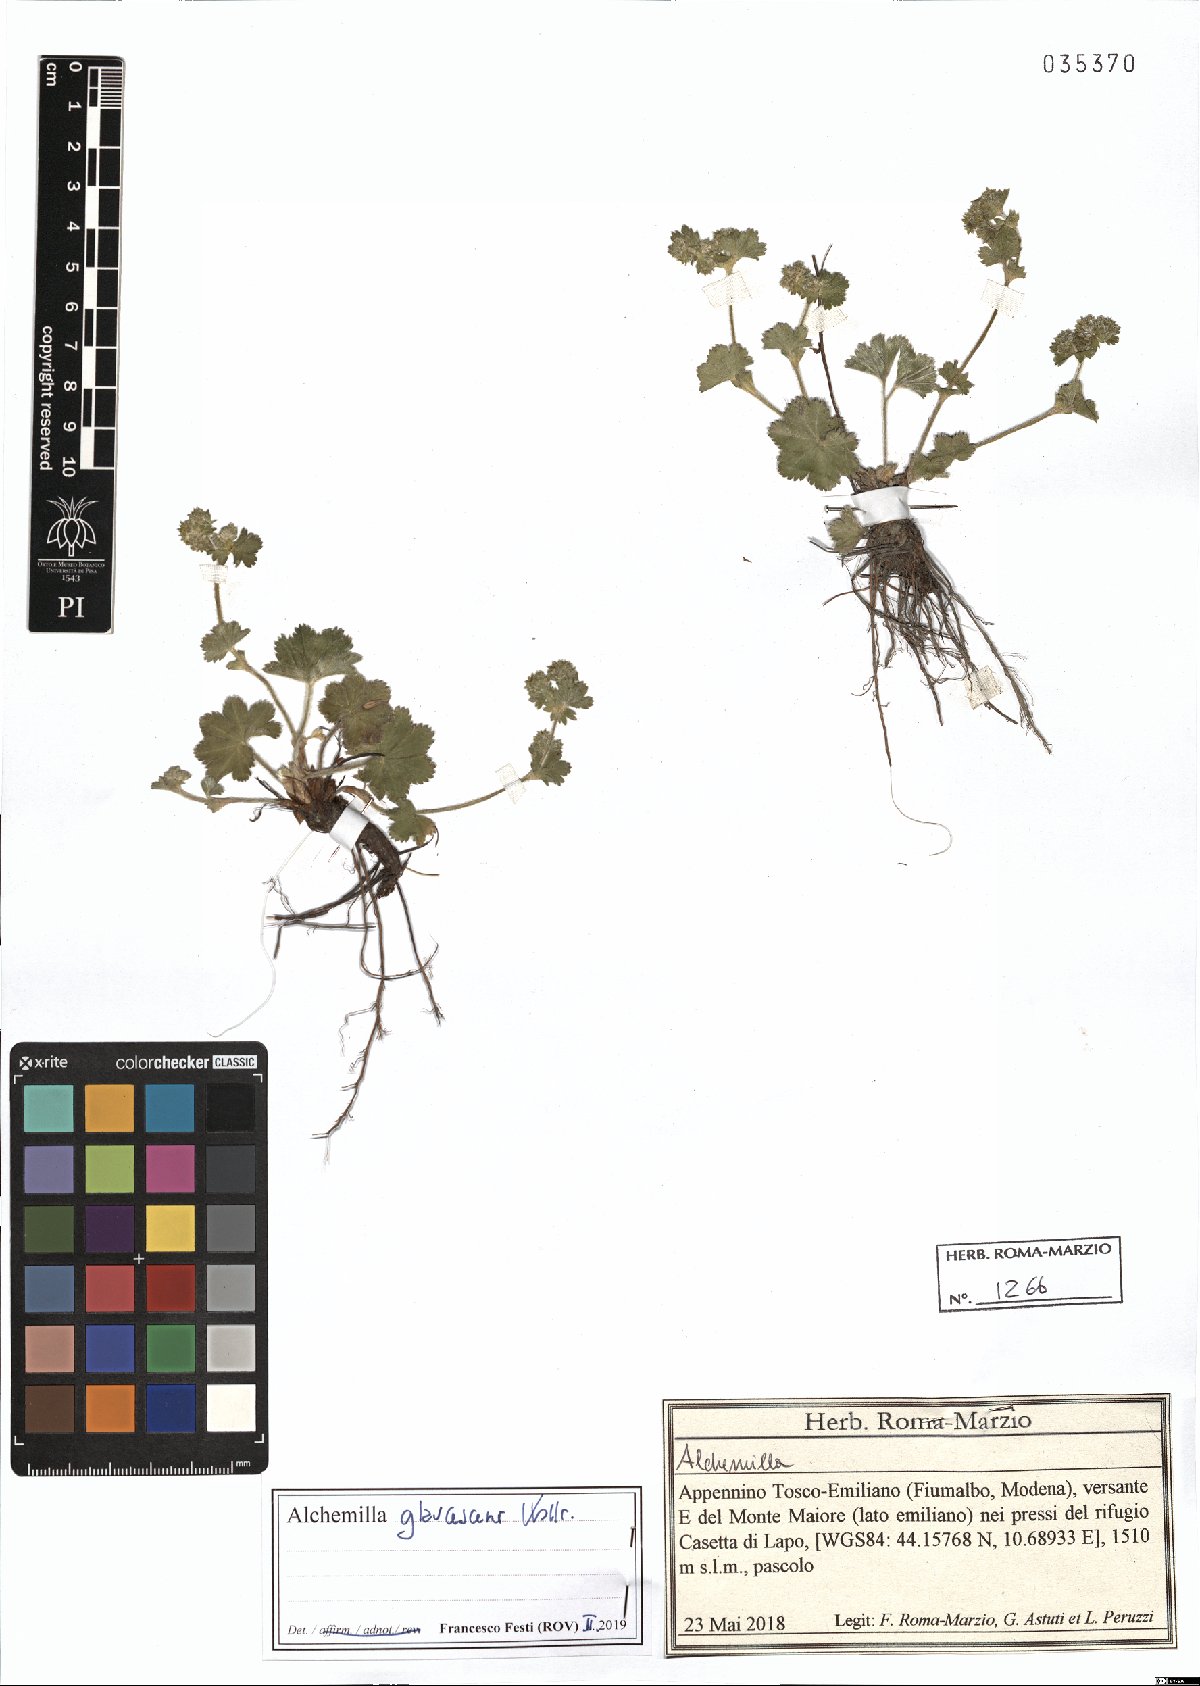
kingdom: Plantae
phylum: Tracheophyta
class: Magnoliopsida
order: Rosales
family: Rosaceae
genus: Alchemilla
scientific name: Alchemilla glaucescens
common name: Silky lady's mantle
